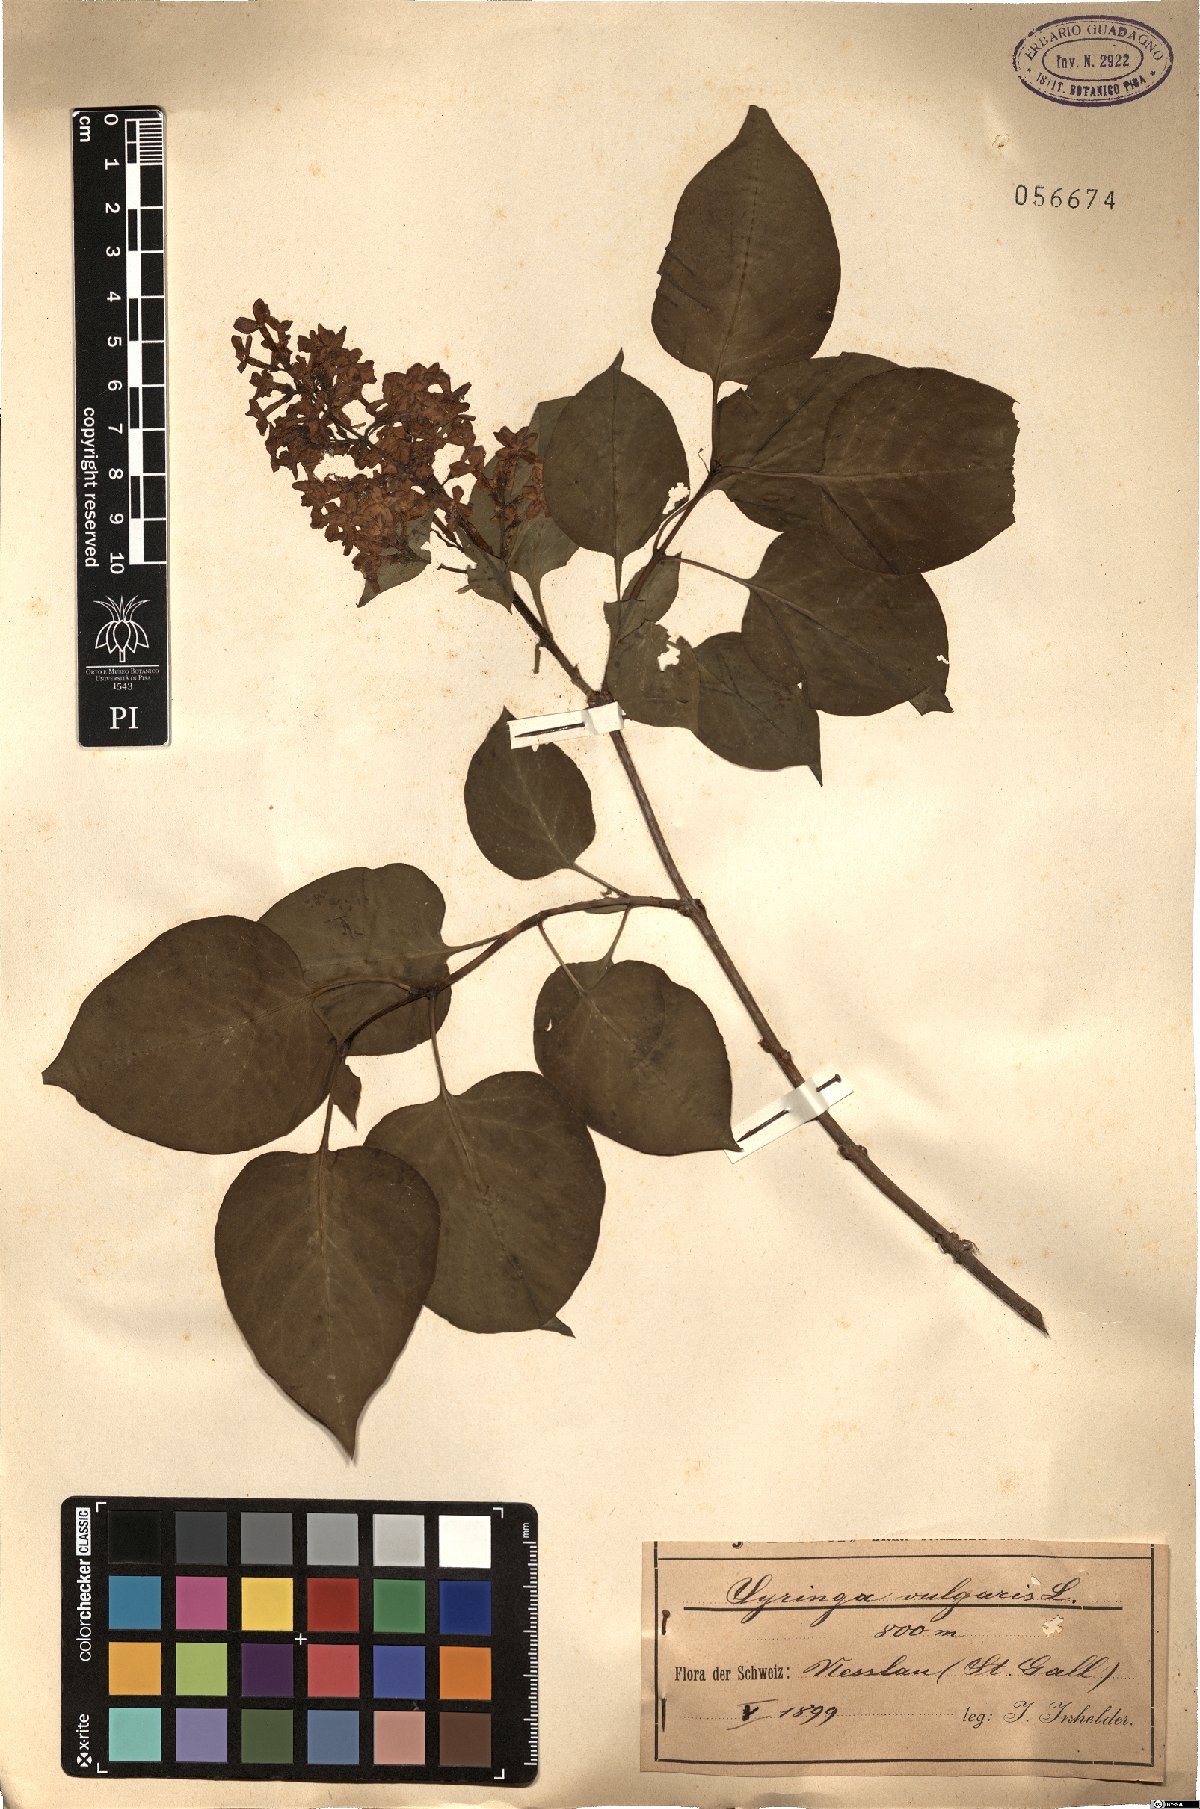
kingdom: Plantae
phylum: Tracheophyta
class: Magnoliopsida
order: Lamiales
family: Oleaceae
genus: Syringa
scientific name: Syringa vulgaris
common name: Common lilac
